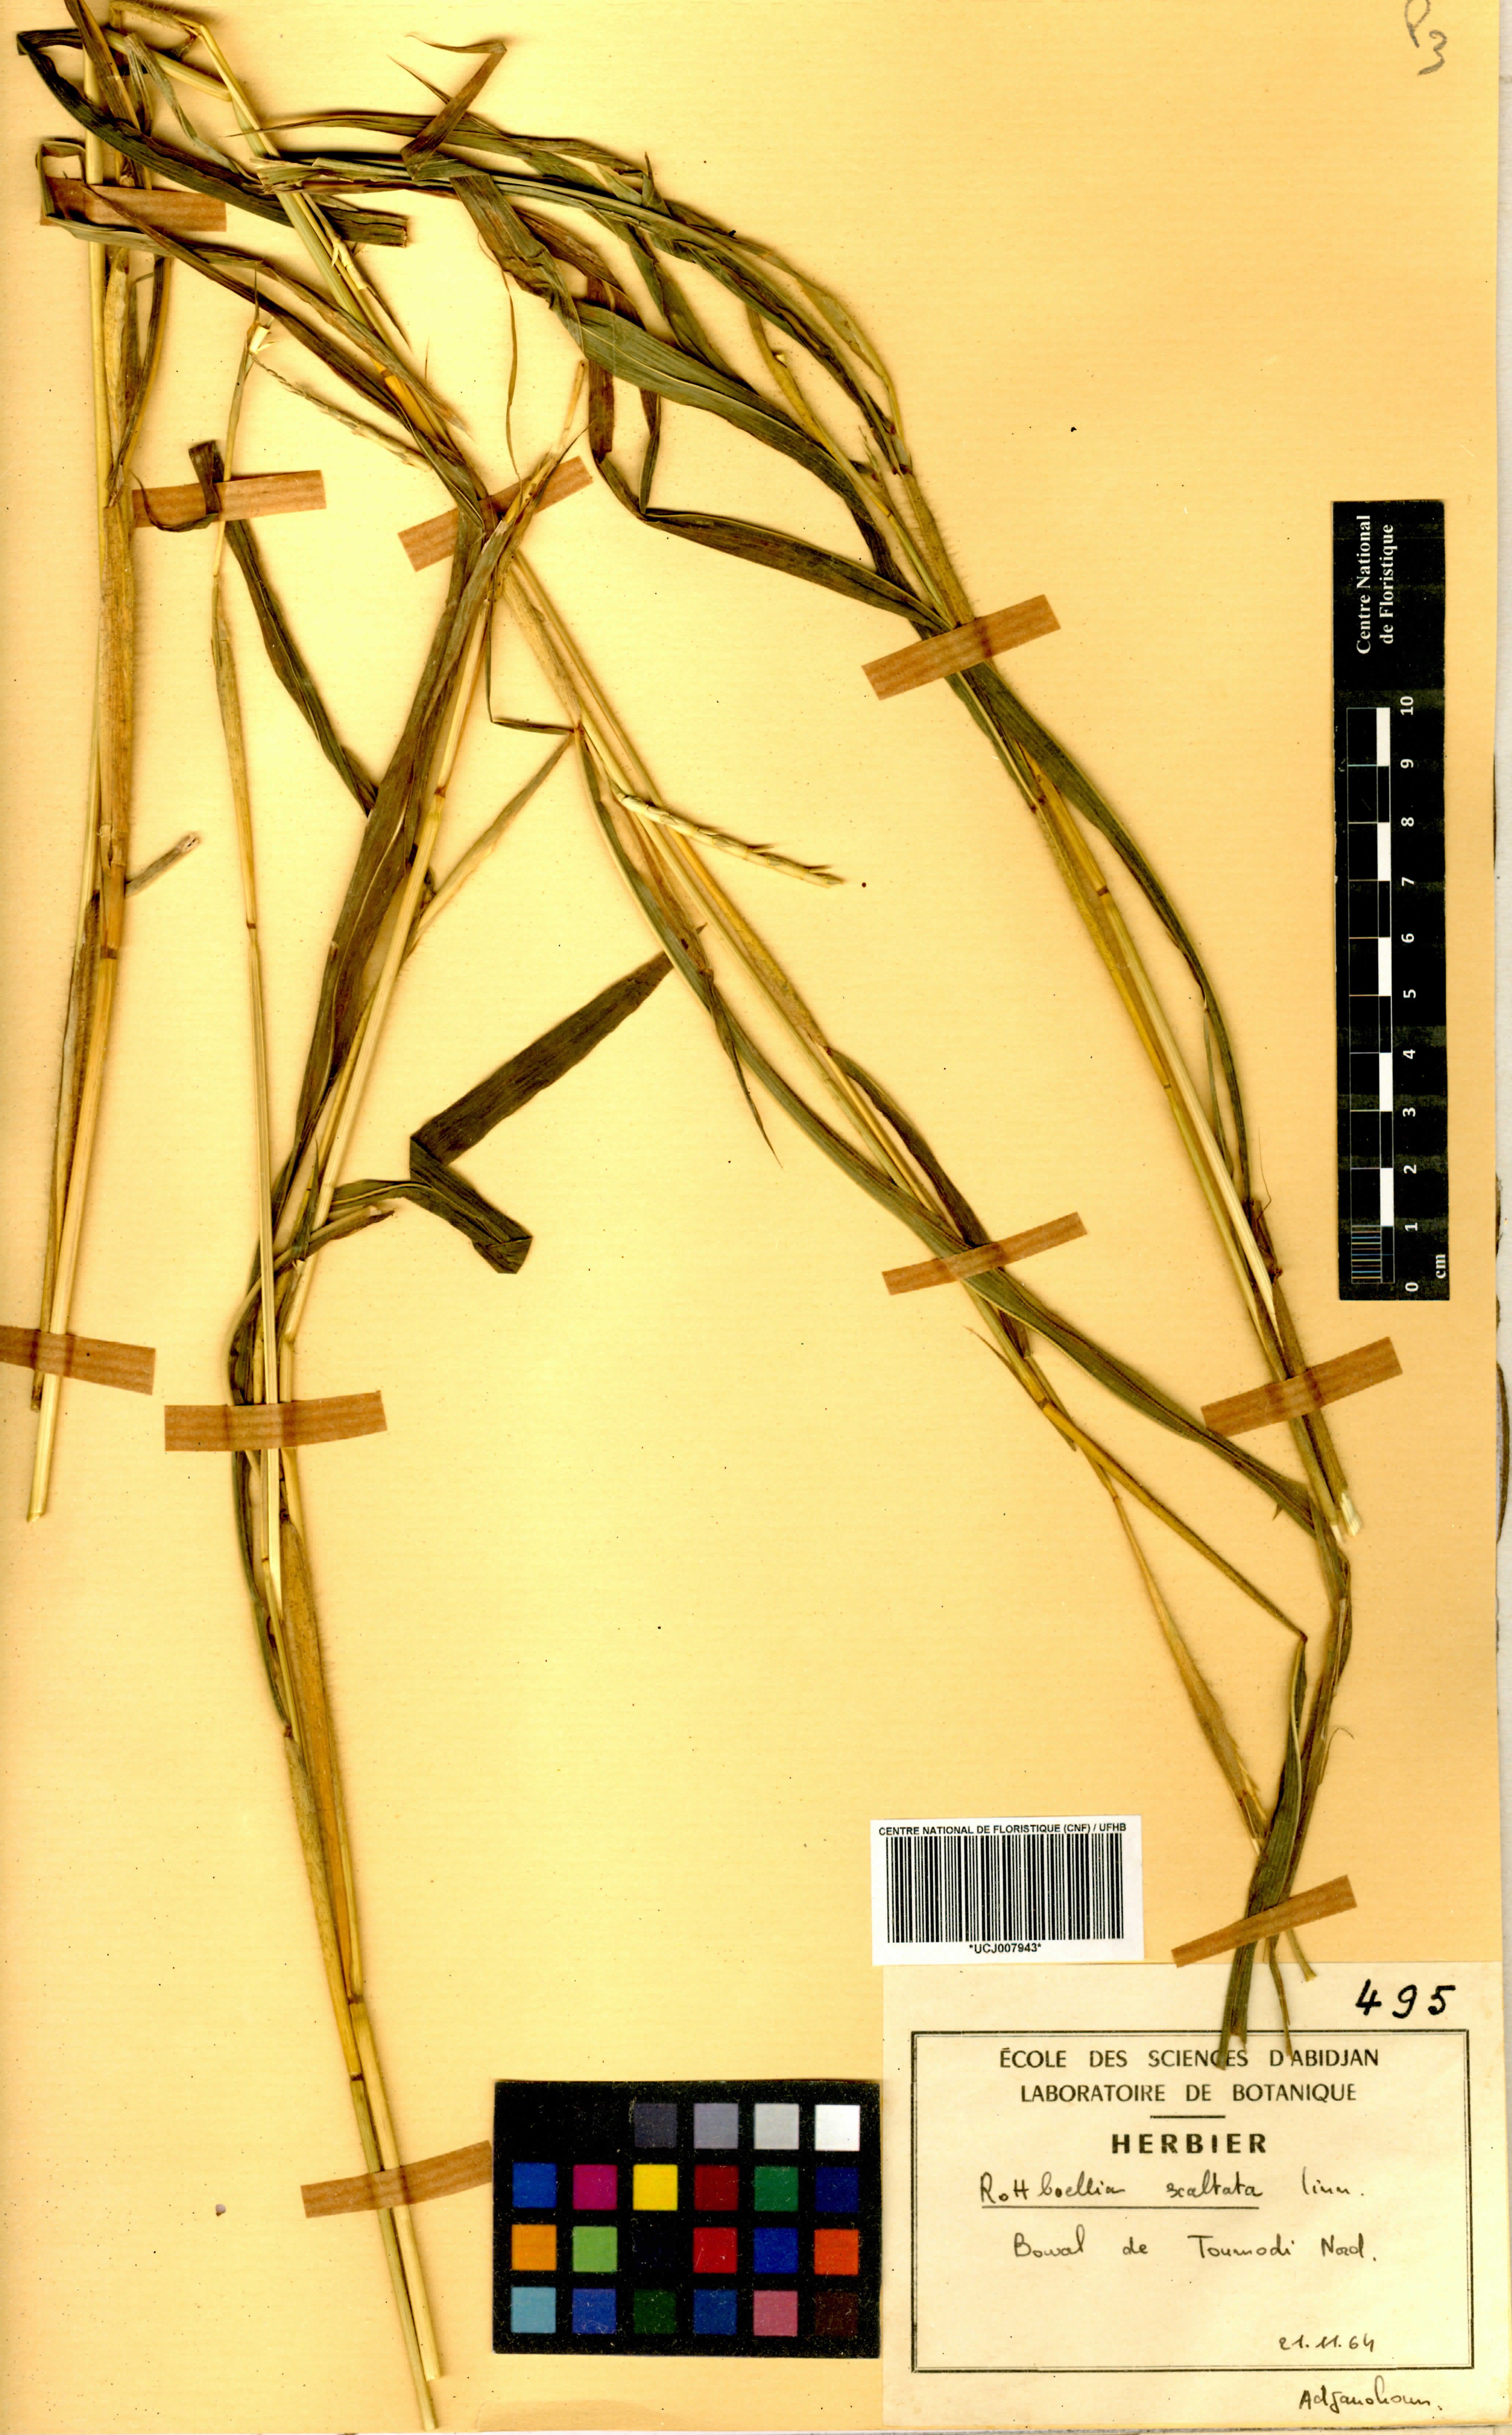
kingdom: Plantae
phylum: Tracheophyta
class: Liliopsida
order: Poales
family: Poaceae
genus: Rottboellia
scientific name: Rottboellia
